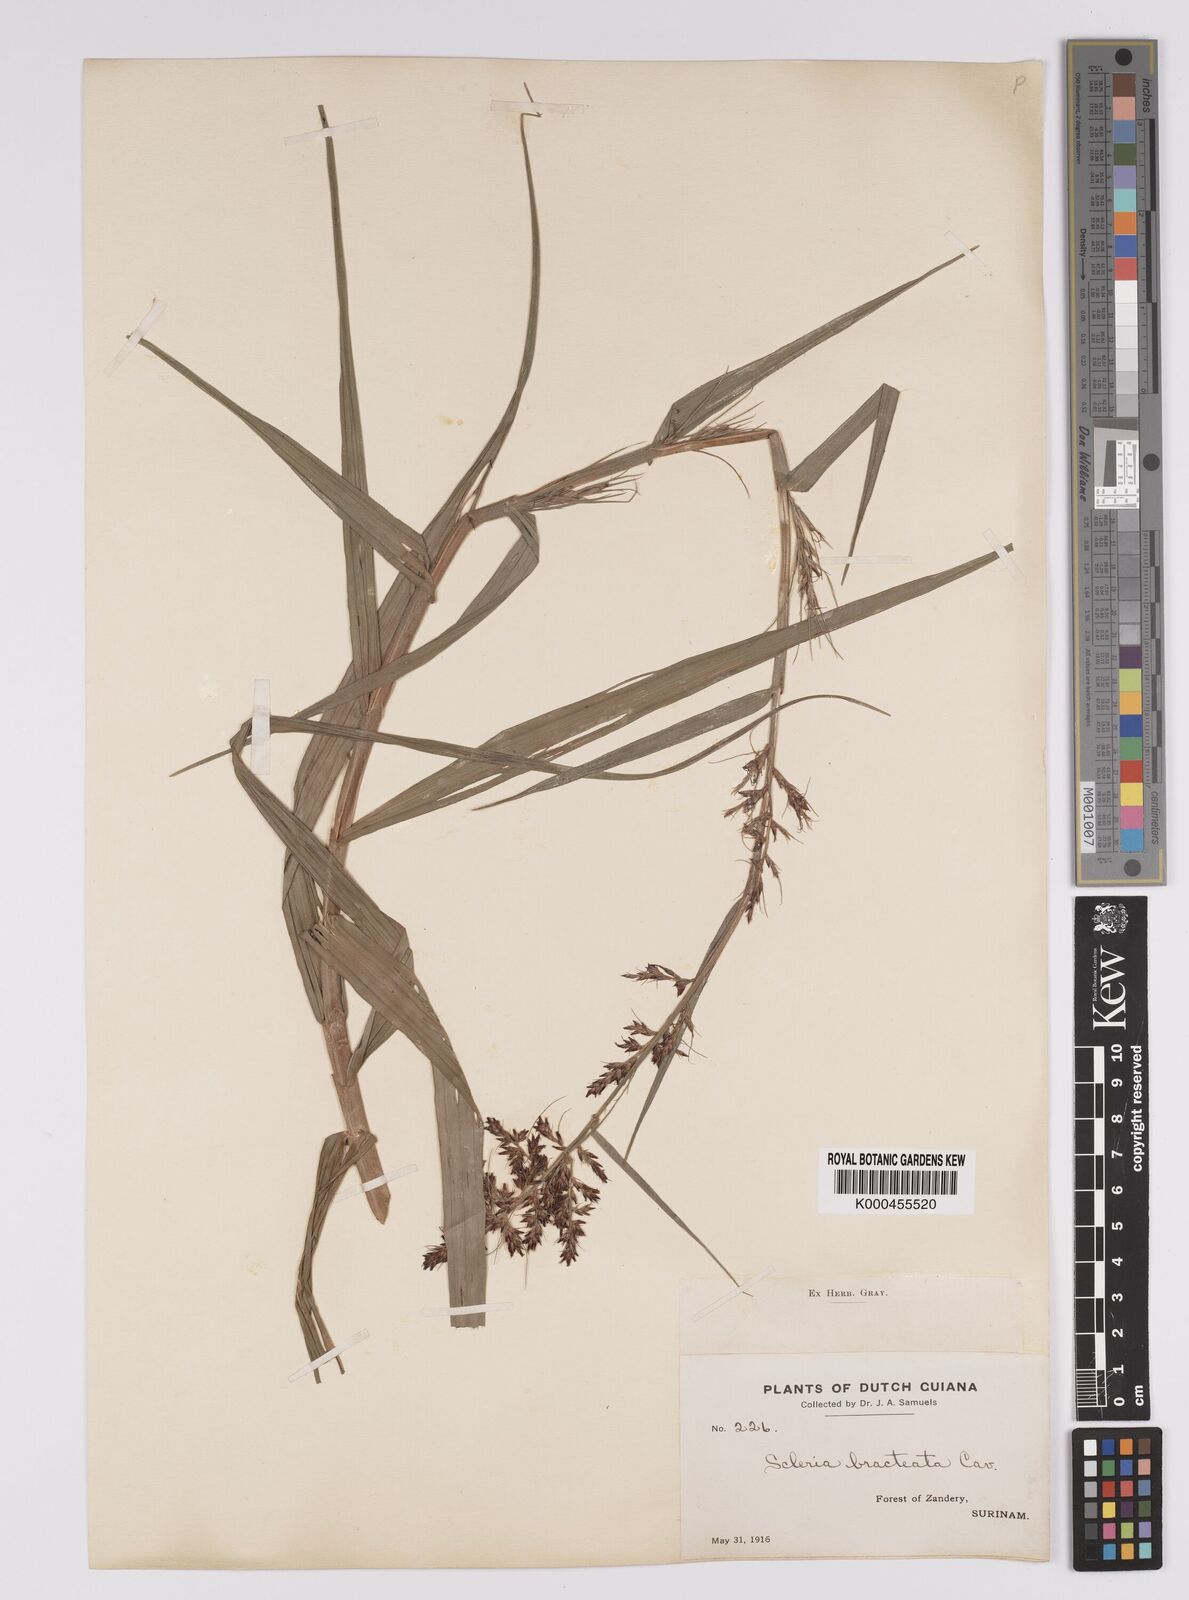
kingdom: Plantae
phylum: Tracheophyta
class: Liliopsida
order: Poales
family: Cyperaceae
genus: Scleria
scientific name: Scleria bracteata
